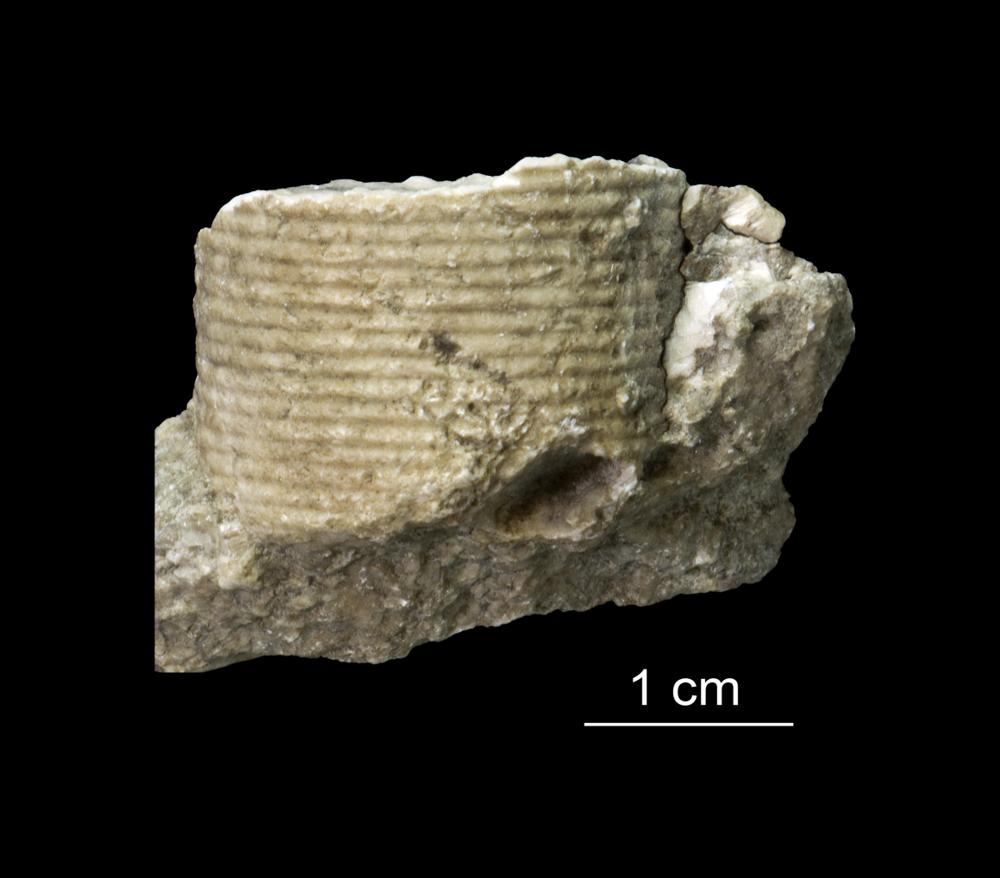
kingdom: Animalia
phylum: Echinodermata
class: Crinoidea
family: Crotalocrinitidae
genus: Crotalocrinus
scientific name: Crotalocrinus
